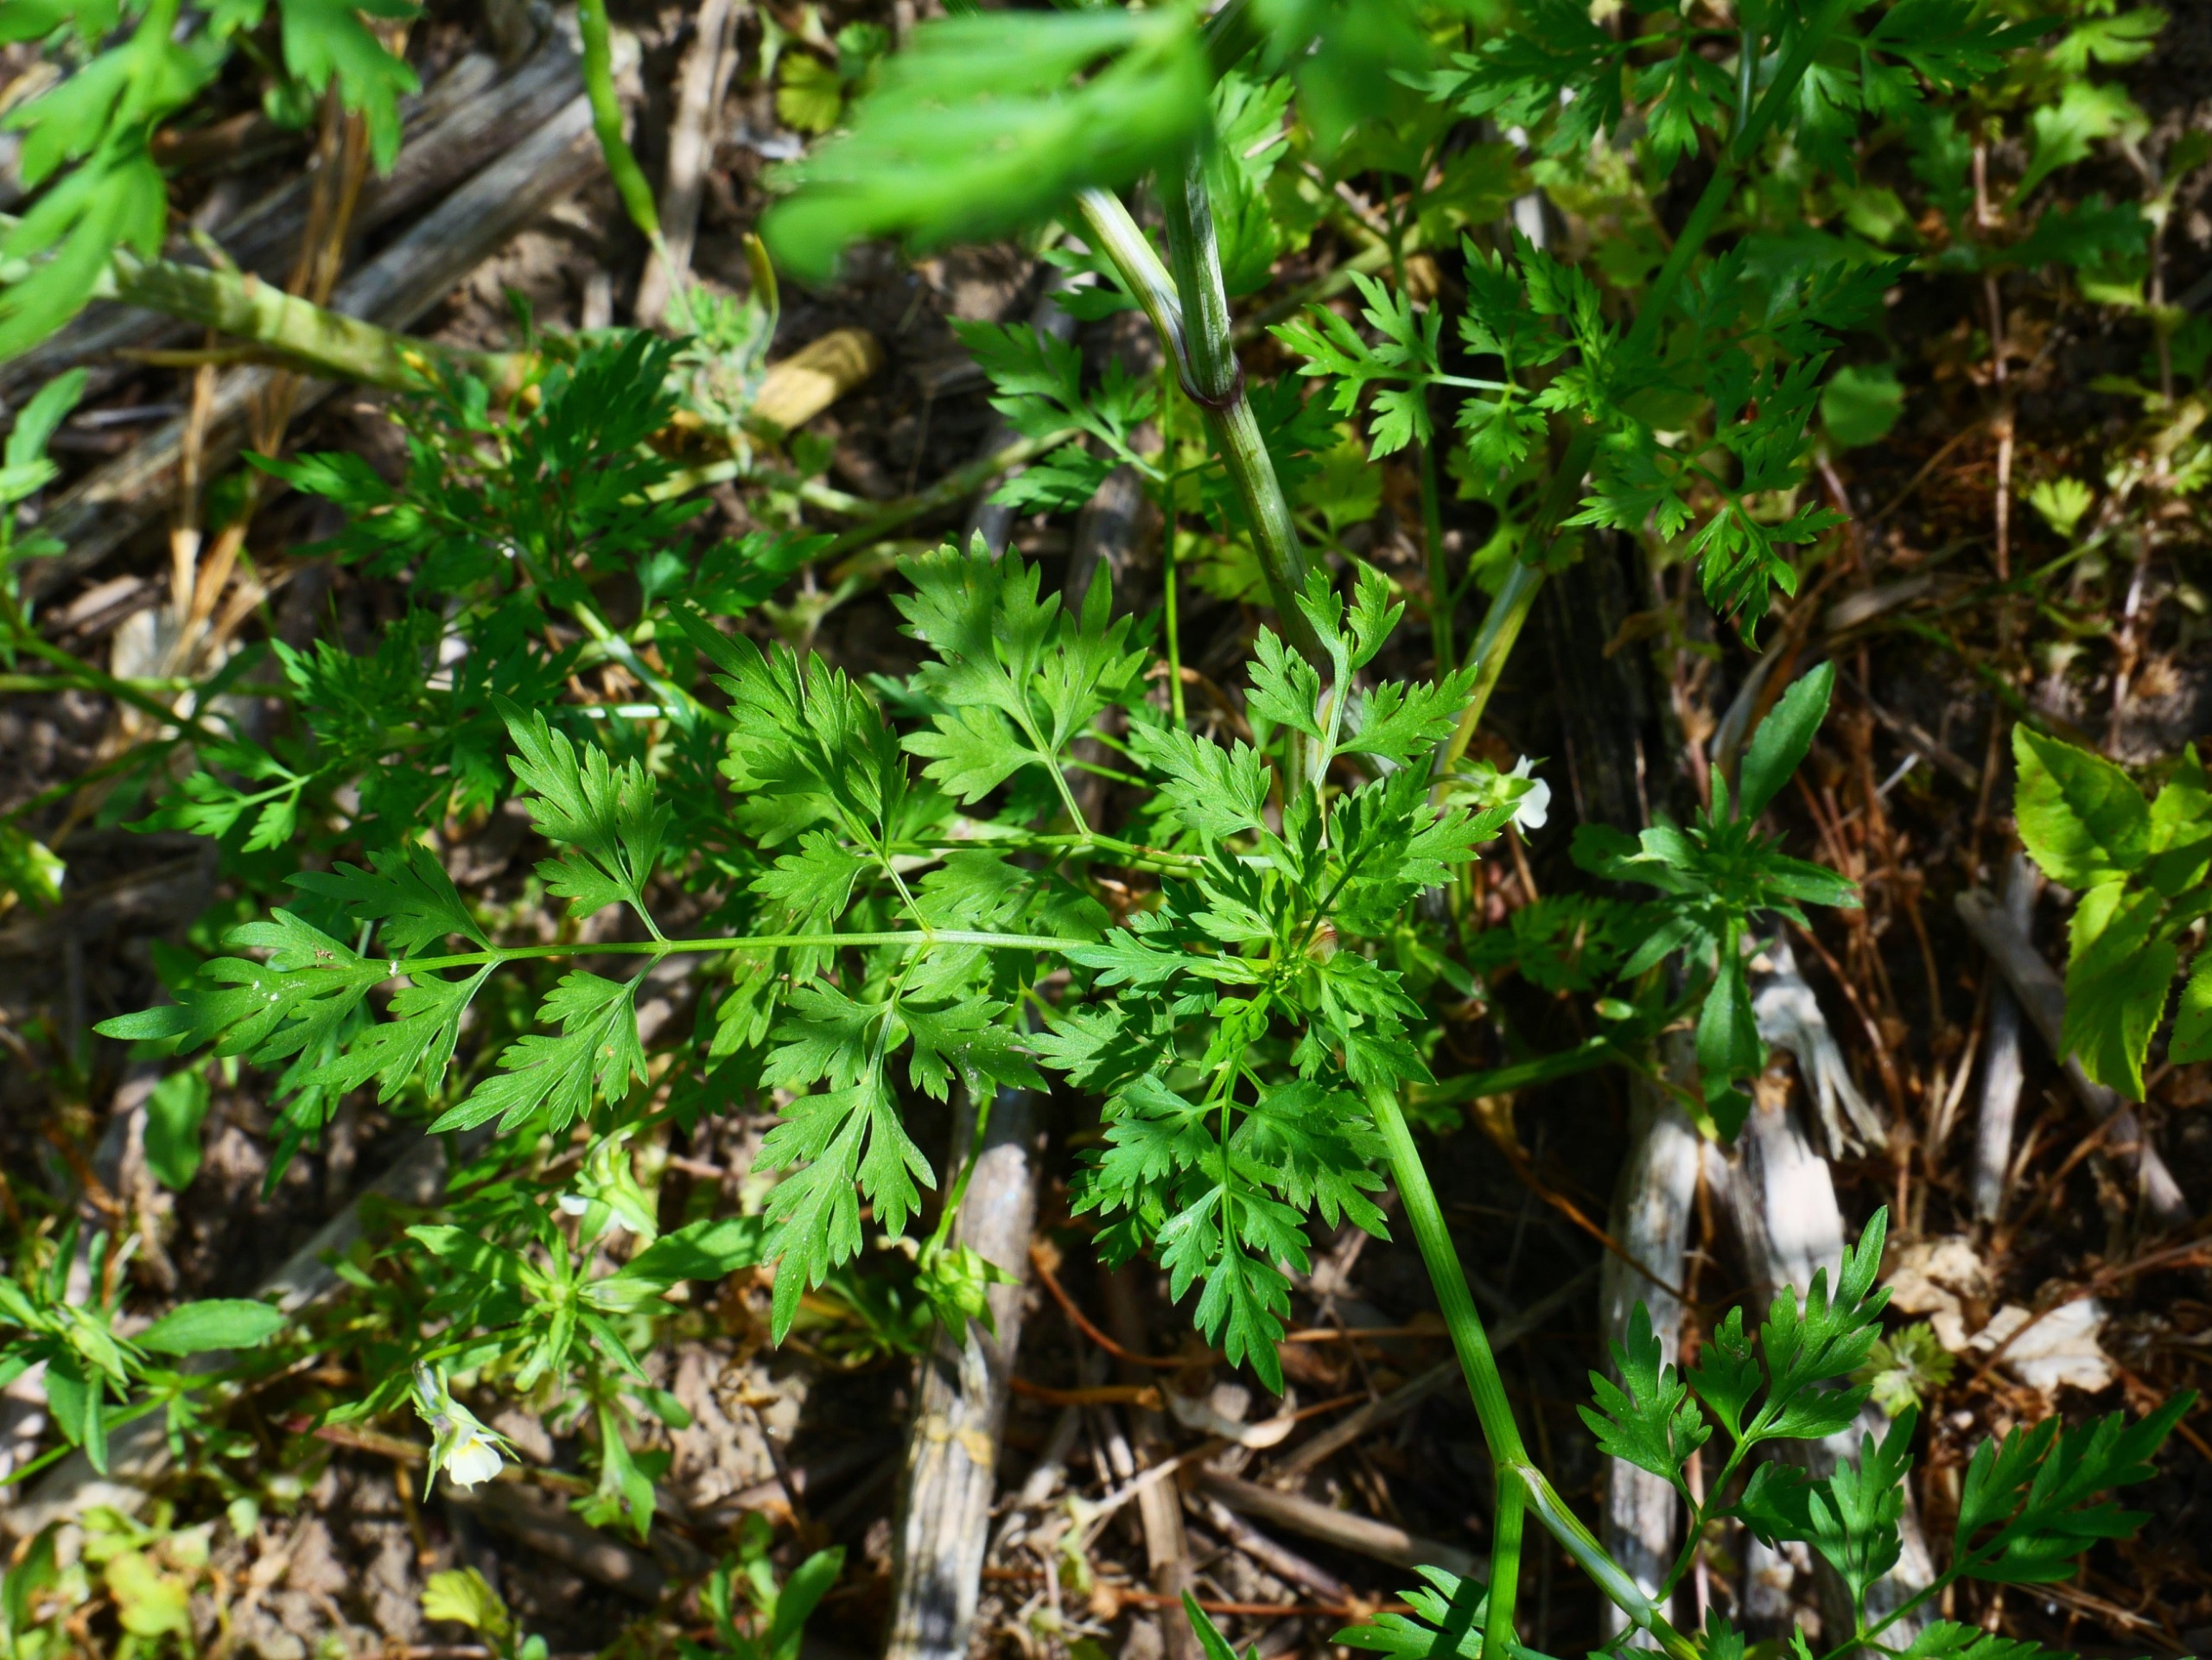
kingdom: Plantae
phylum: Tracheophyta
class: Magnoliopsida
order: Apiales
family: Apiaceae
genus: Aethusa
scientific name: Aethusa cynapium
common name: Hundepersille
